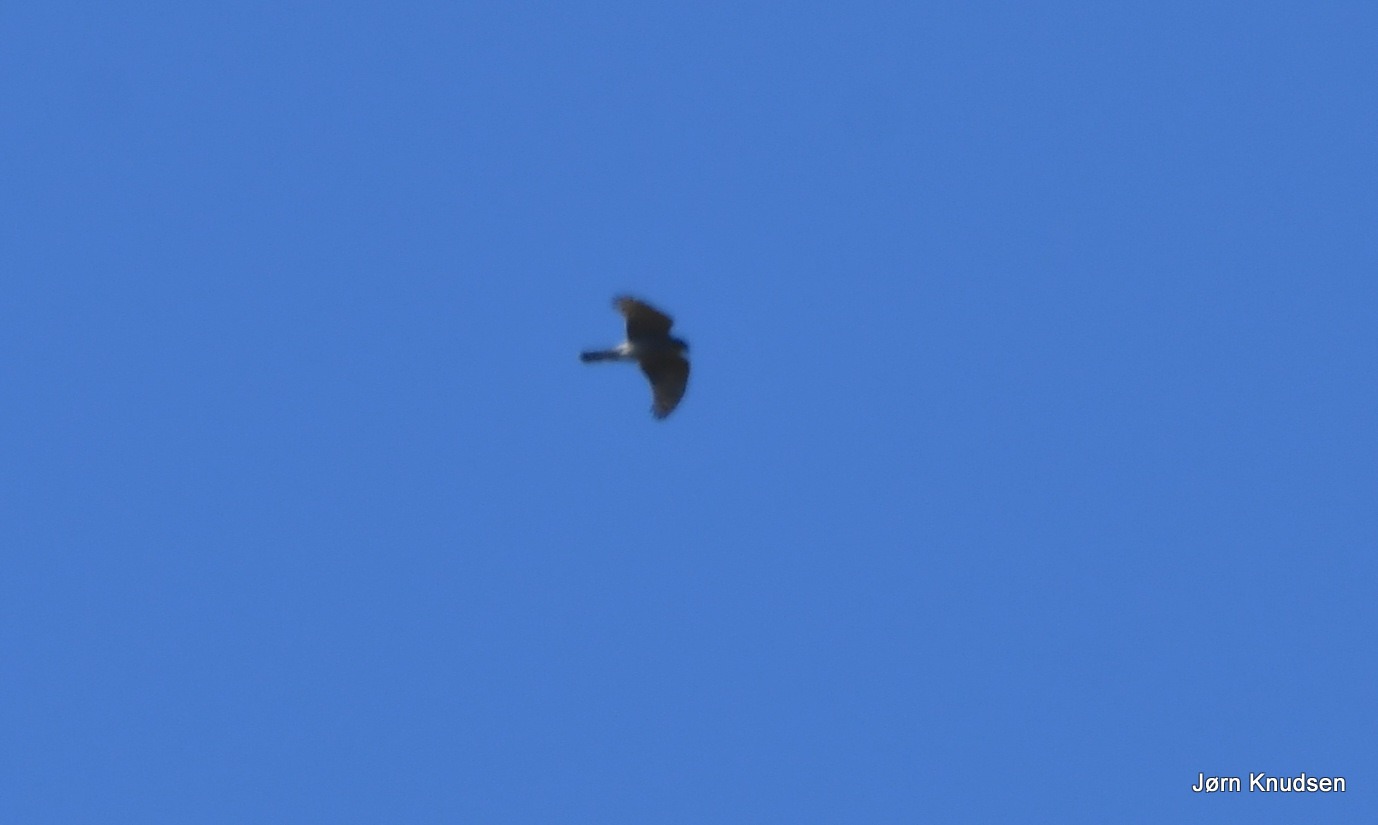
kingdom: Animalia
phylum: Chordata
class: Aves
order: Accipitriformes
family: Accipitridae
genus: Accipiter
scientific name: Accipiter nisus
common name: Spurvehøg
